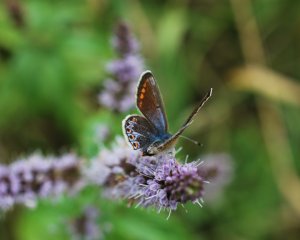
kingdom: Animalia
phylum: Arthropoda
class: Insecta
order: Lepidoptera
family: Lycaenidae
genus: Polyommatus
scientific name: Polyommatus icarus
